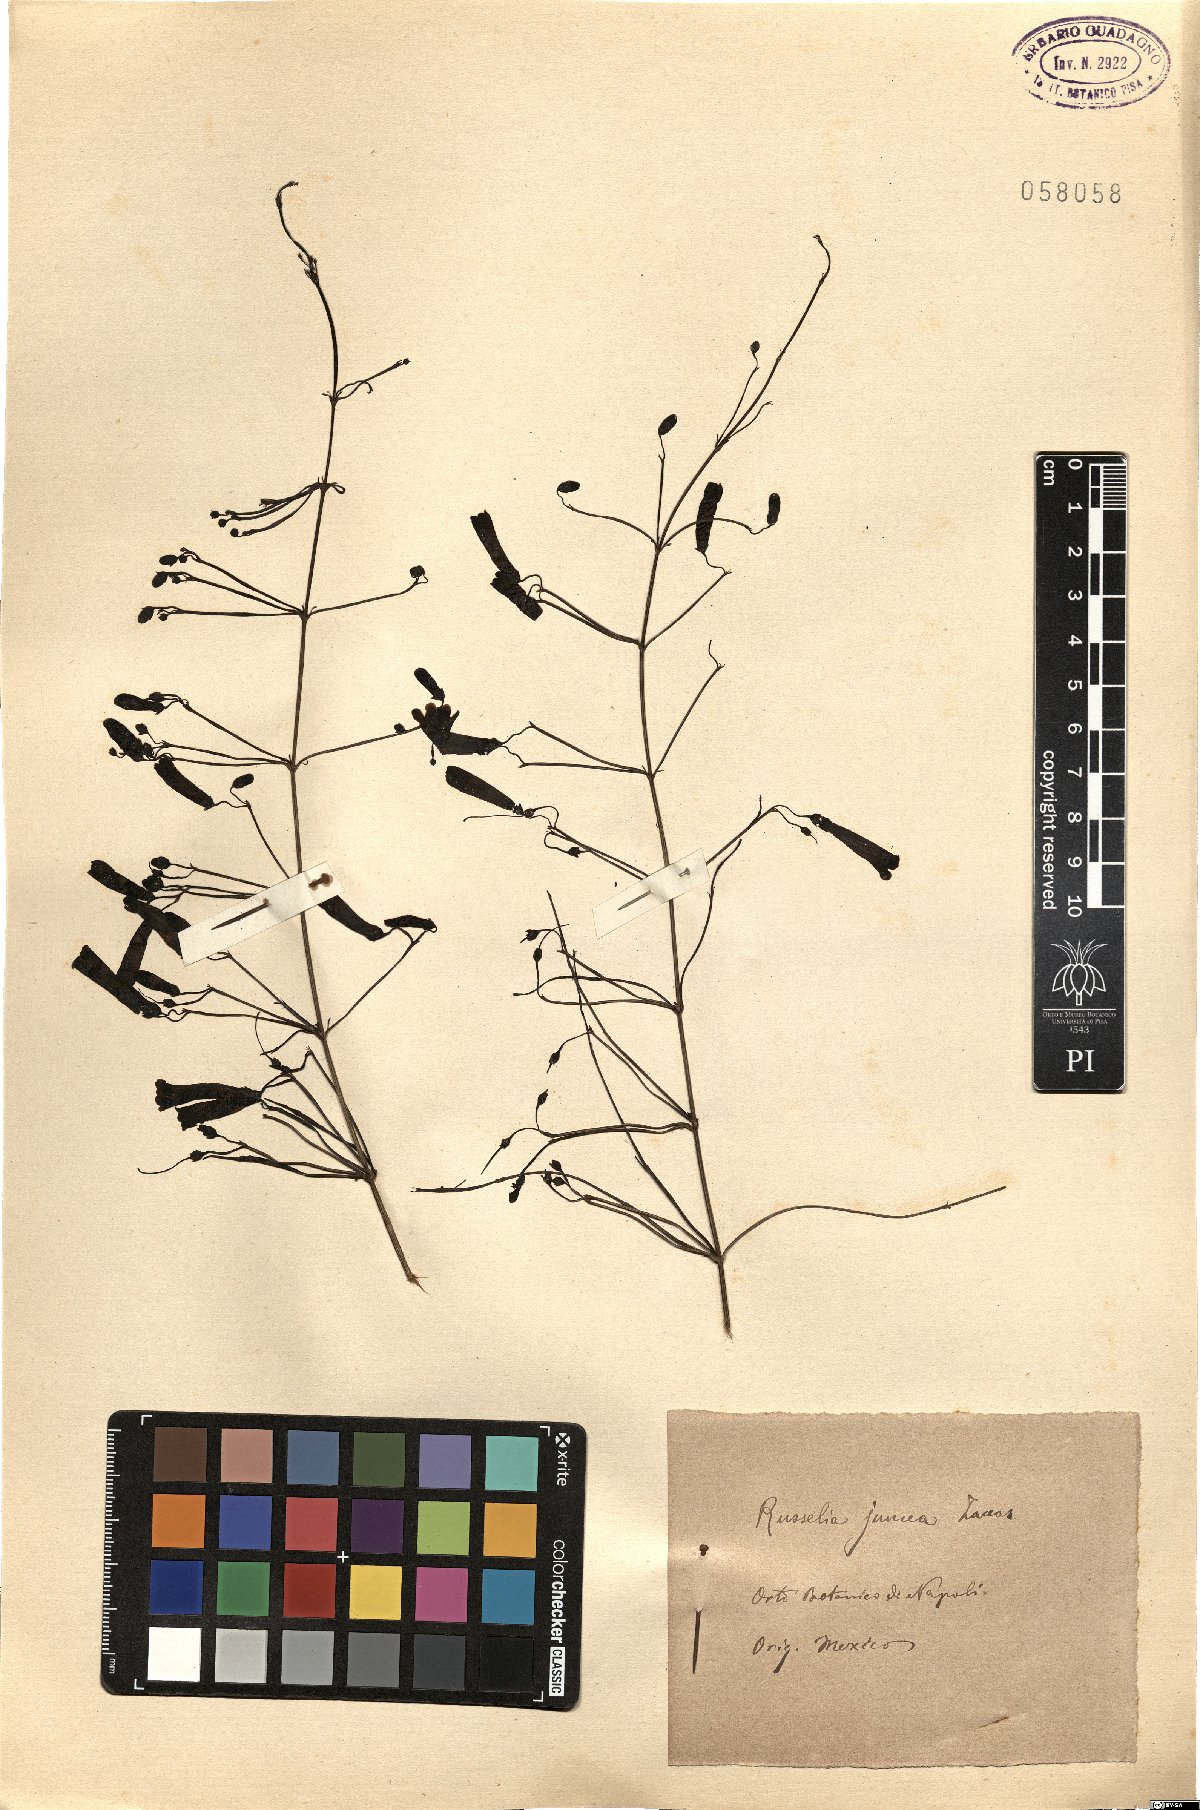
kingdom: Plantae
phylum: Tracheophyta
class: Magnoliopsida
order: Lamiales
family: Plantaginaceae
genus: Russelia
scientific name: Russelia equisetiformis
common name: Fountainbush
